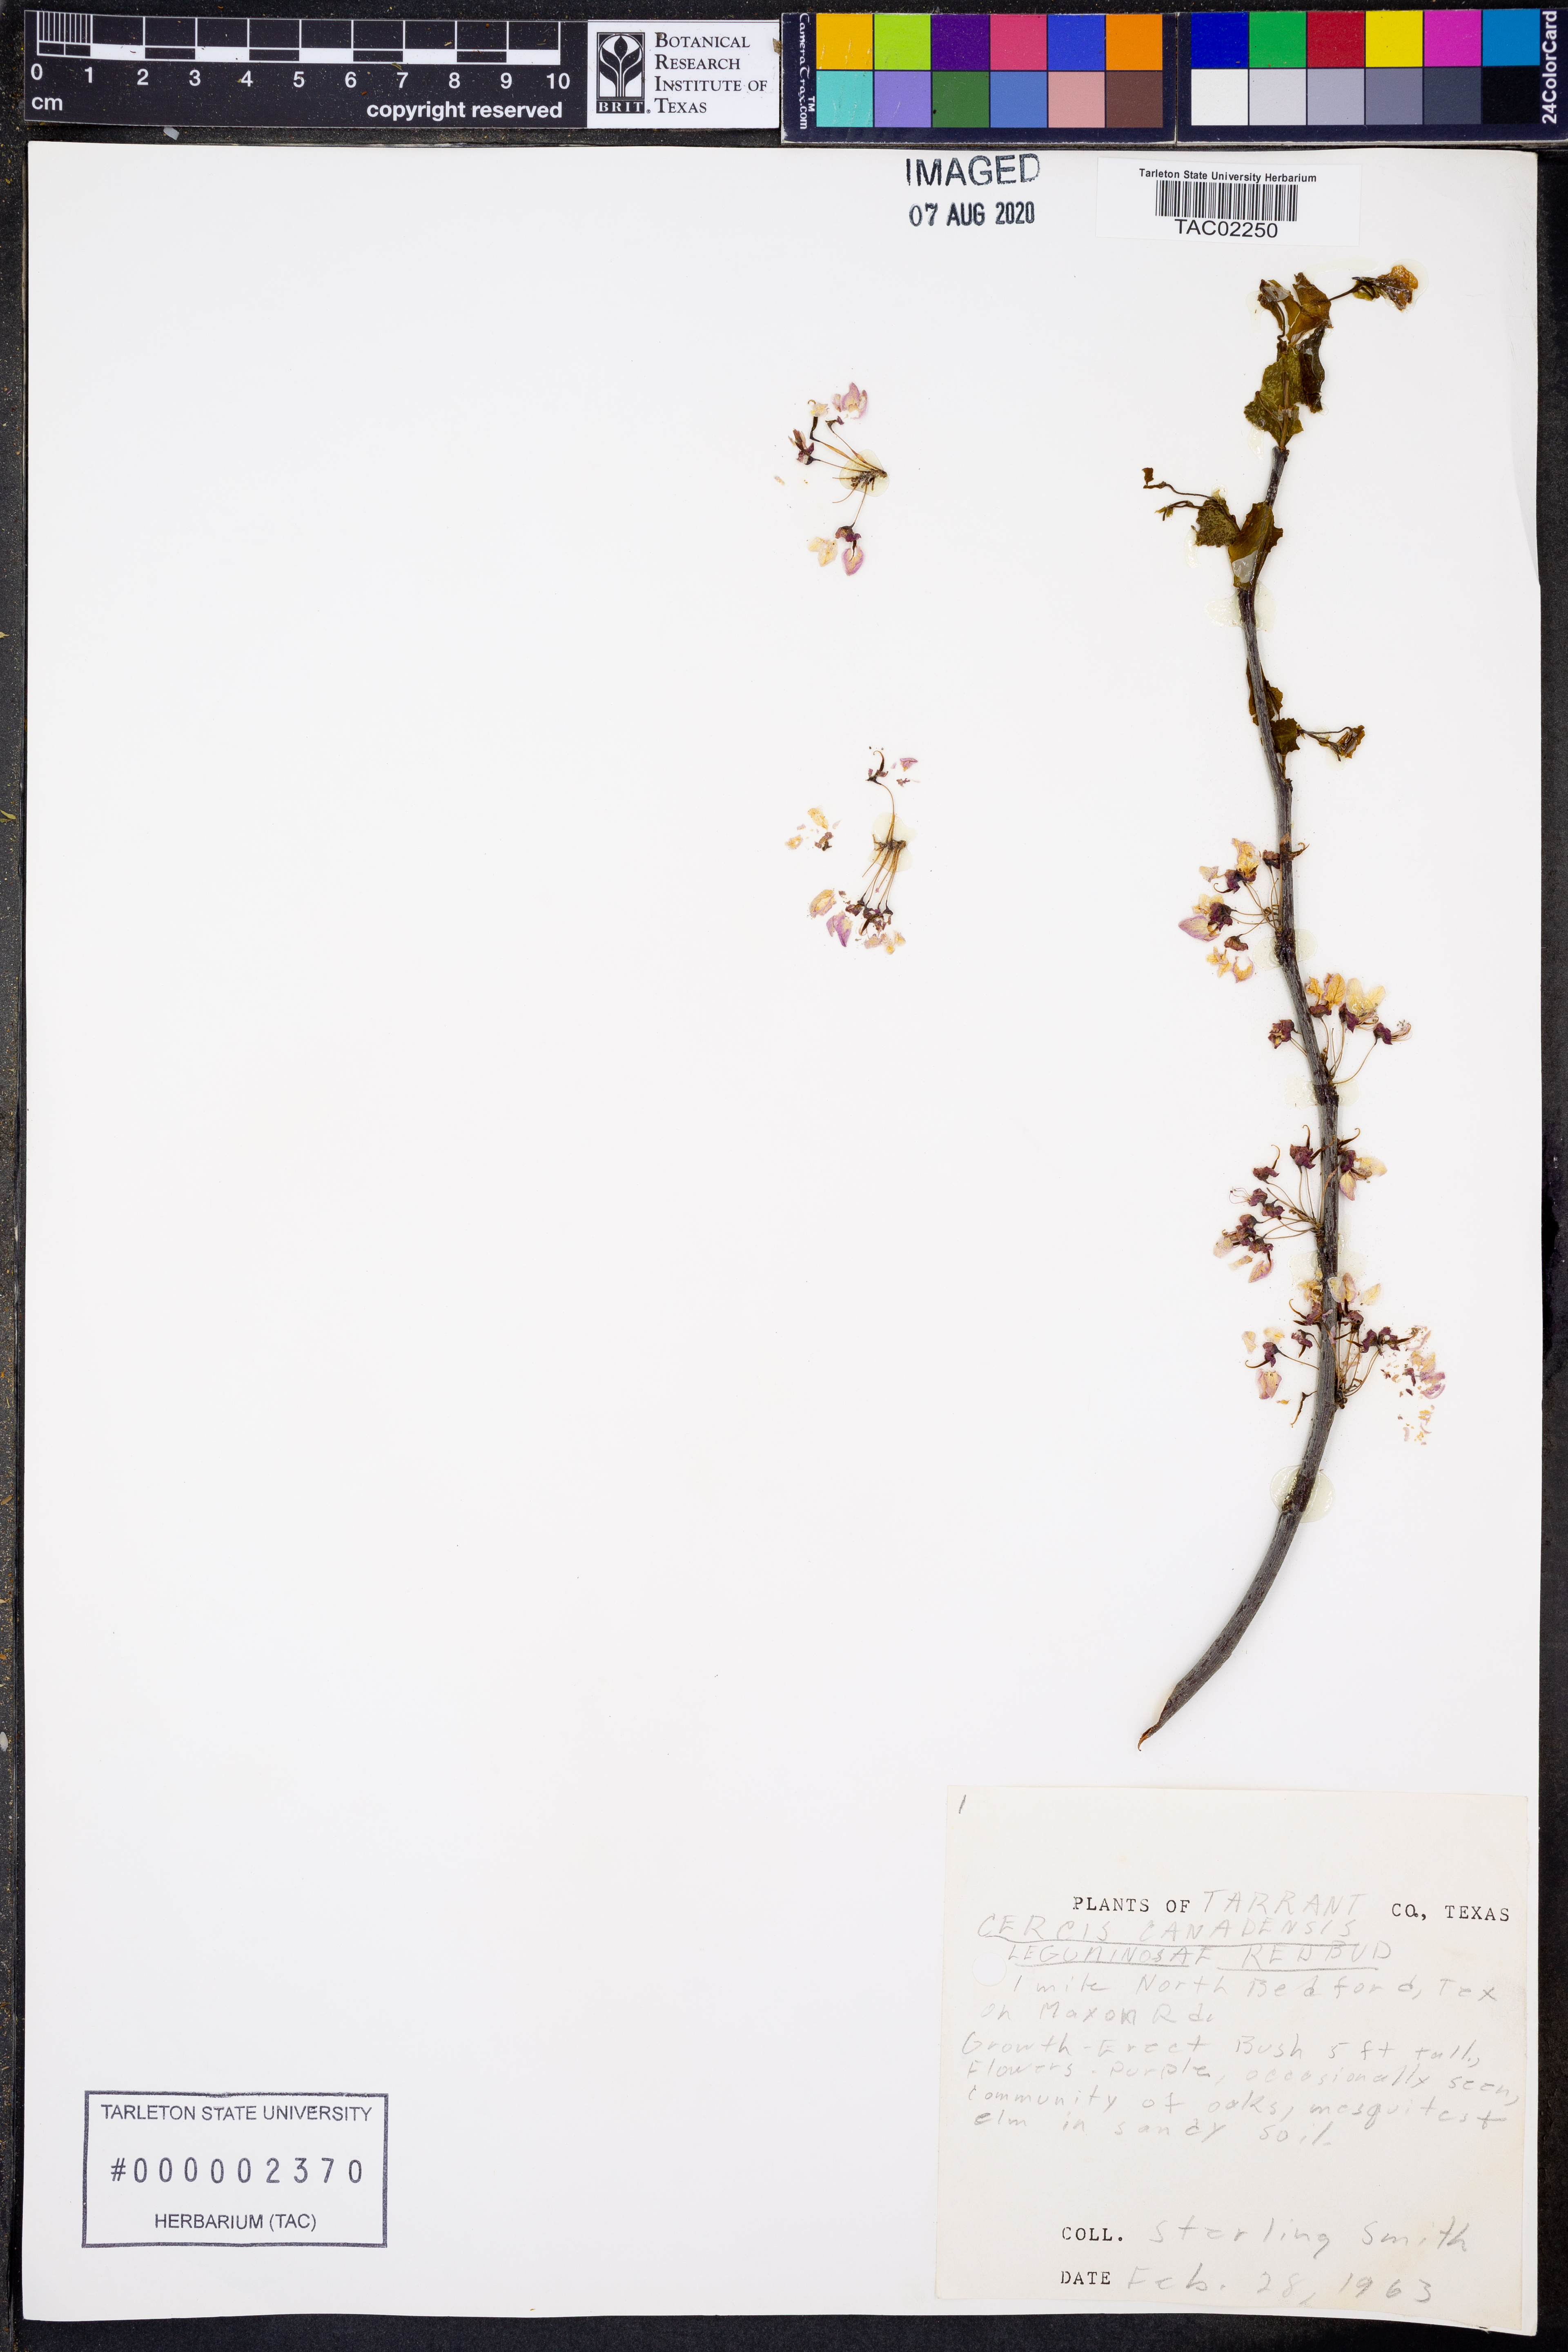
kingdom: Plantae
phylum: Tracheophyta
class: Magnoliopsida
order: Fabales
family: Fabaceae
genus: Cercis
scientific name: Cercis canadensis
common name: Eastern redbud
